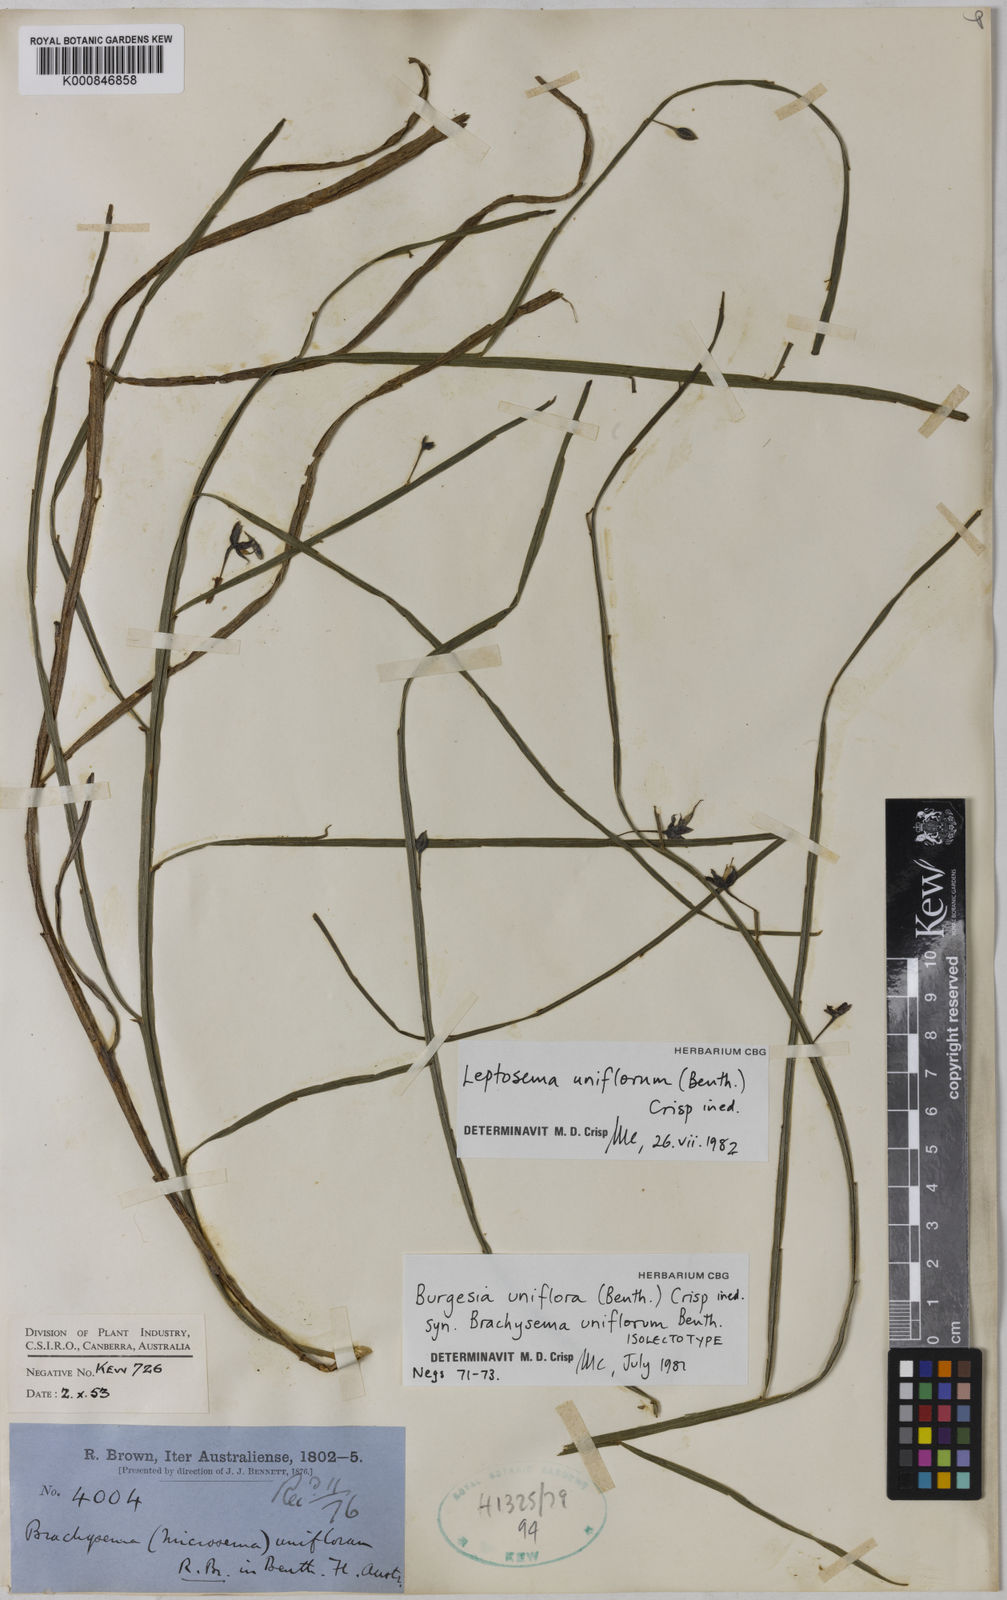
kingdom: Plantae
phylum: Tracheophyta
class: Magnoliopsida
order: Fabales
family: Fabaceae
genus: Leptosema
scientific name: Leptosema uniflorum
